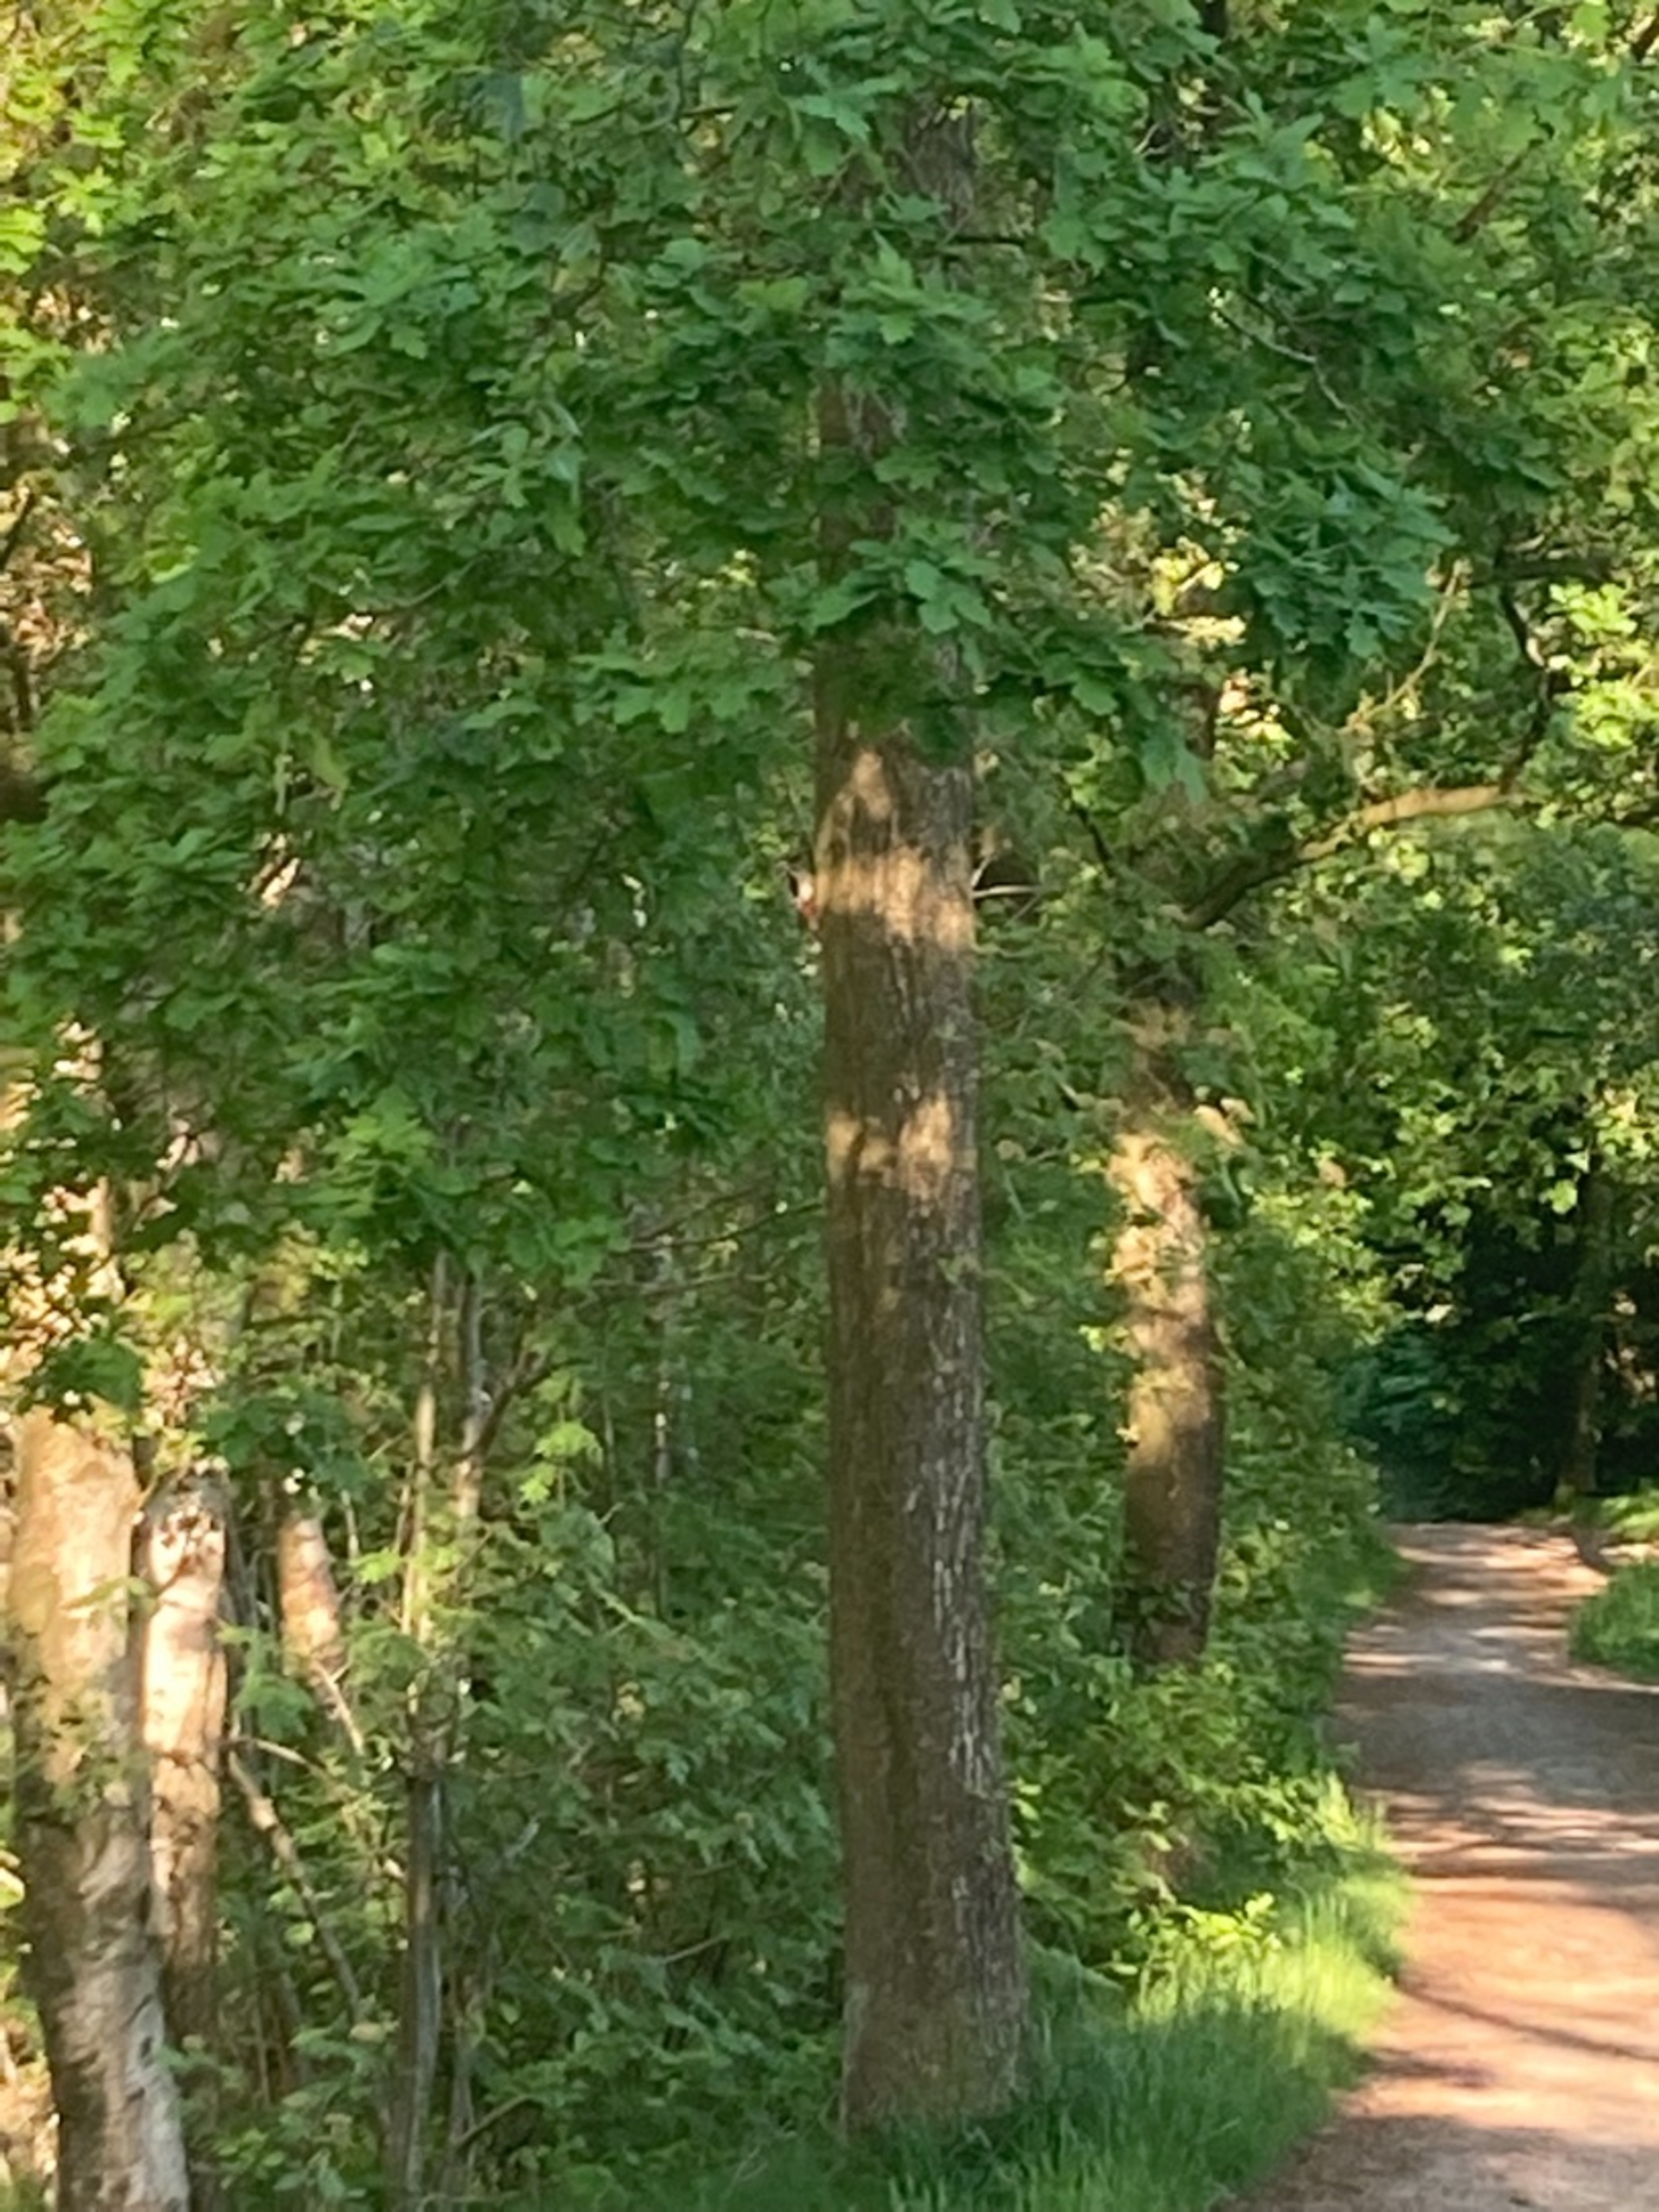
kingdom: Animalia
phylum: Chordata
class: Aves
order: Piciformes
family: Picidae
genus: Dendrocopos
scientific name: Dendrocopos major
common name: Stor flagspætte
